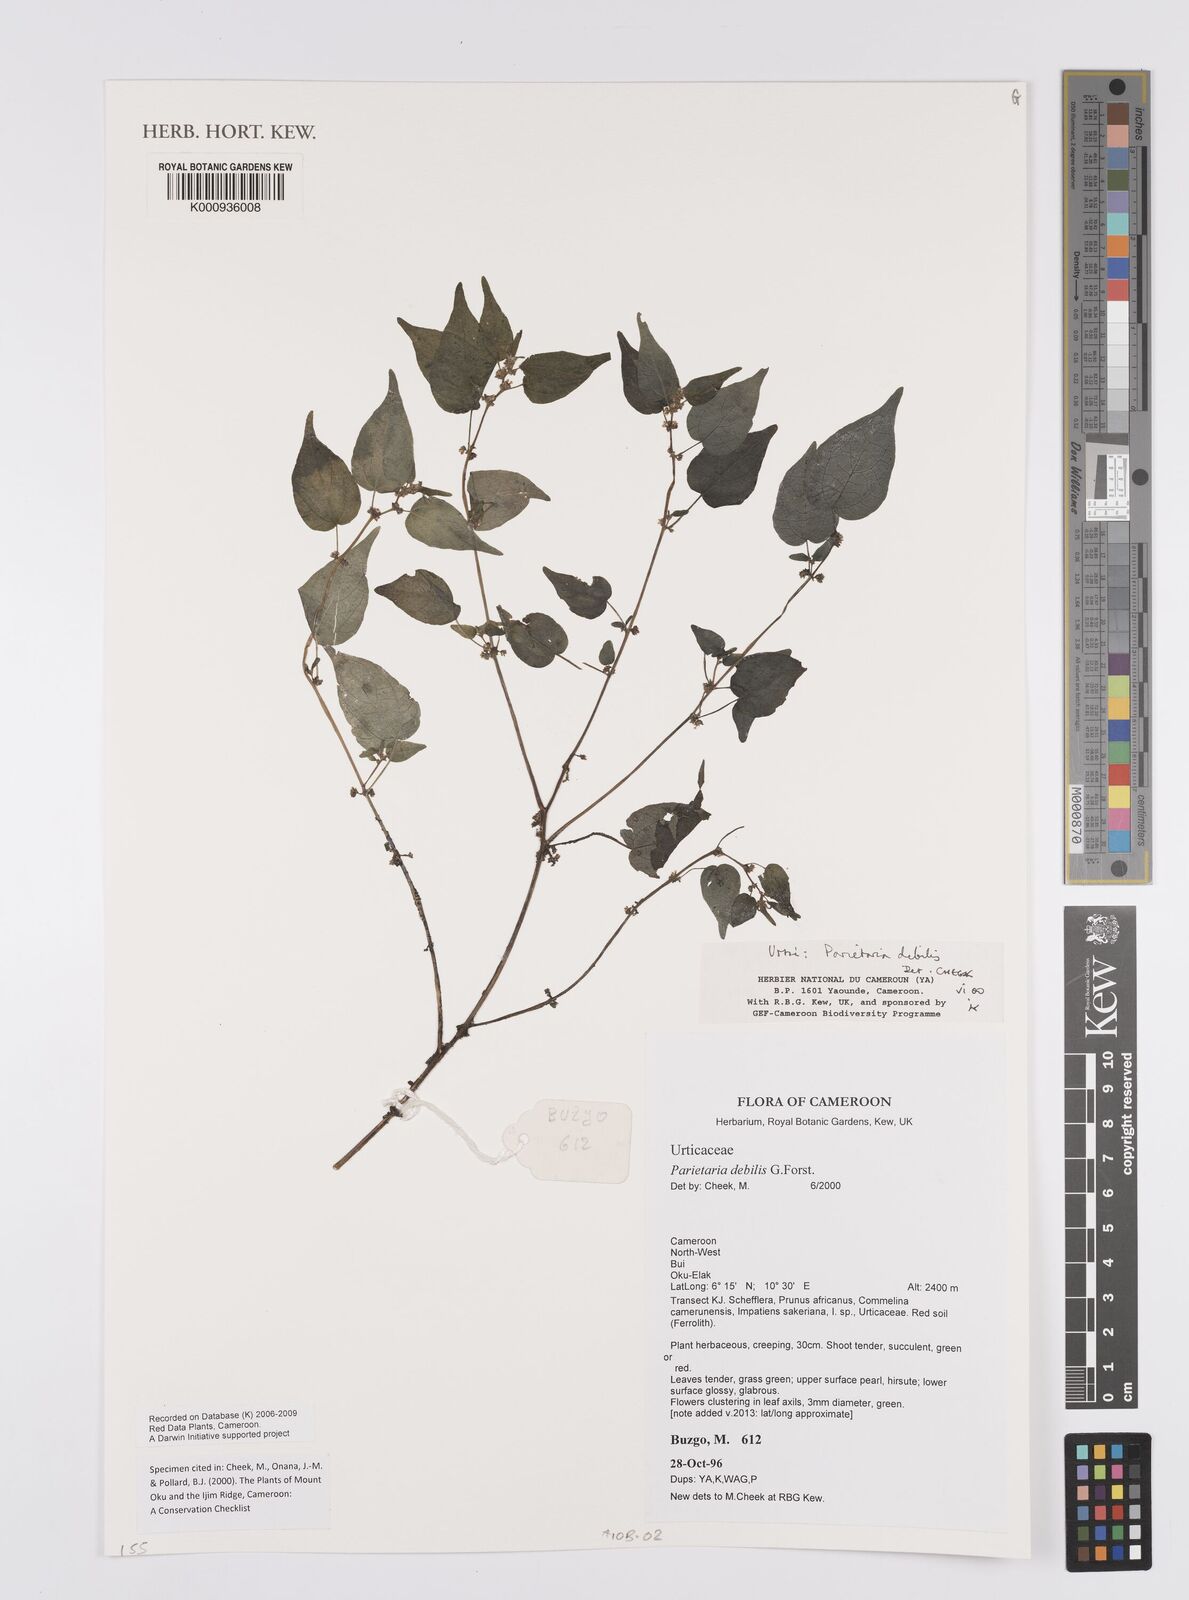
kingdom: Plantae
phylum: Tracheophyta
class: Magnoliopsida
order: Rosales
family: Urticaceae
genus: Parietaria
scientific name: Parietaria debilis
